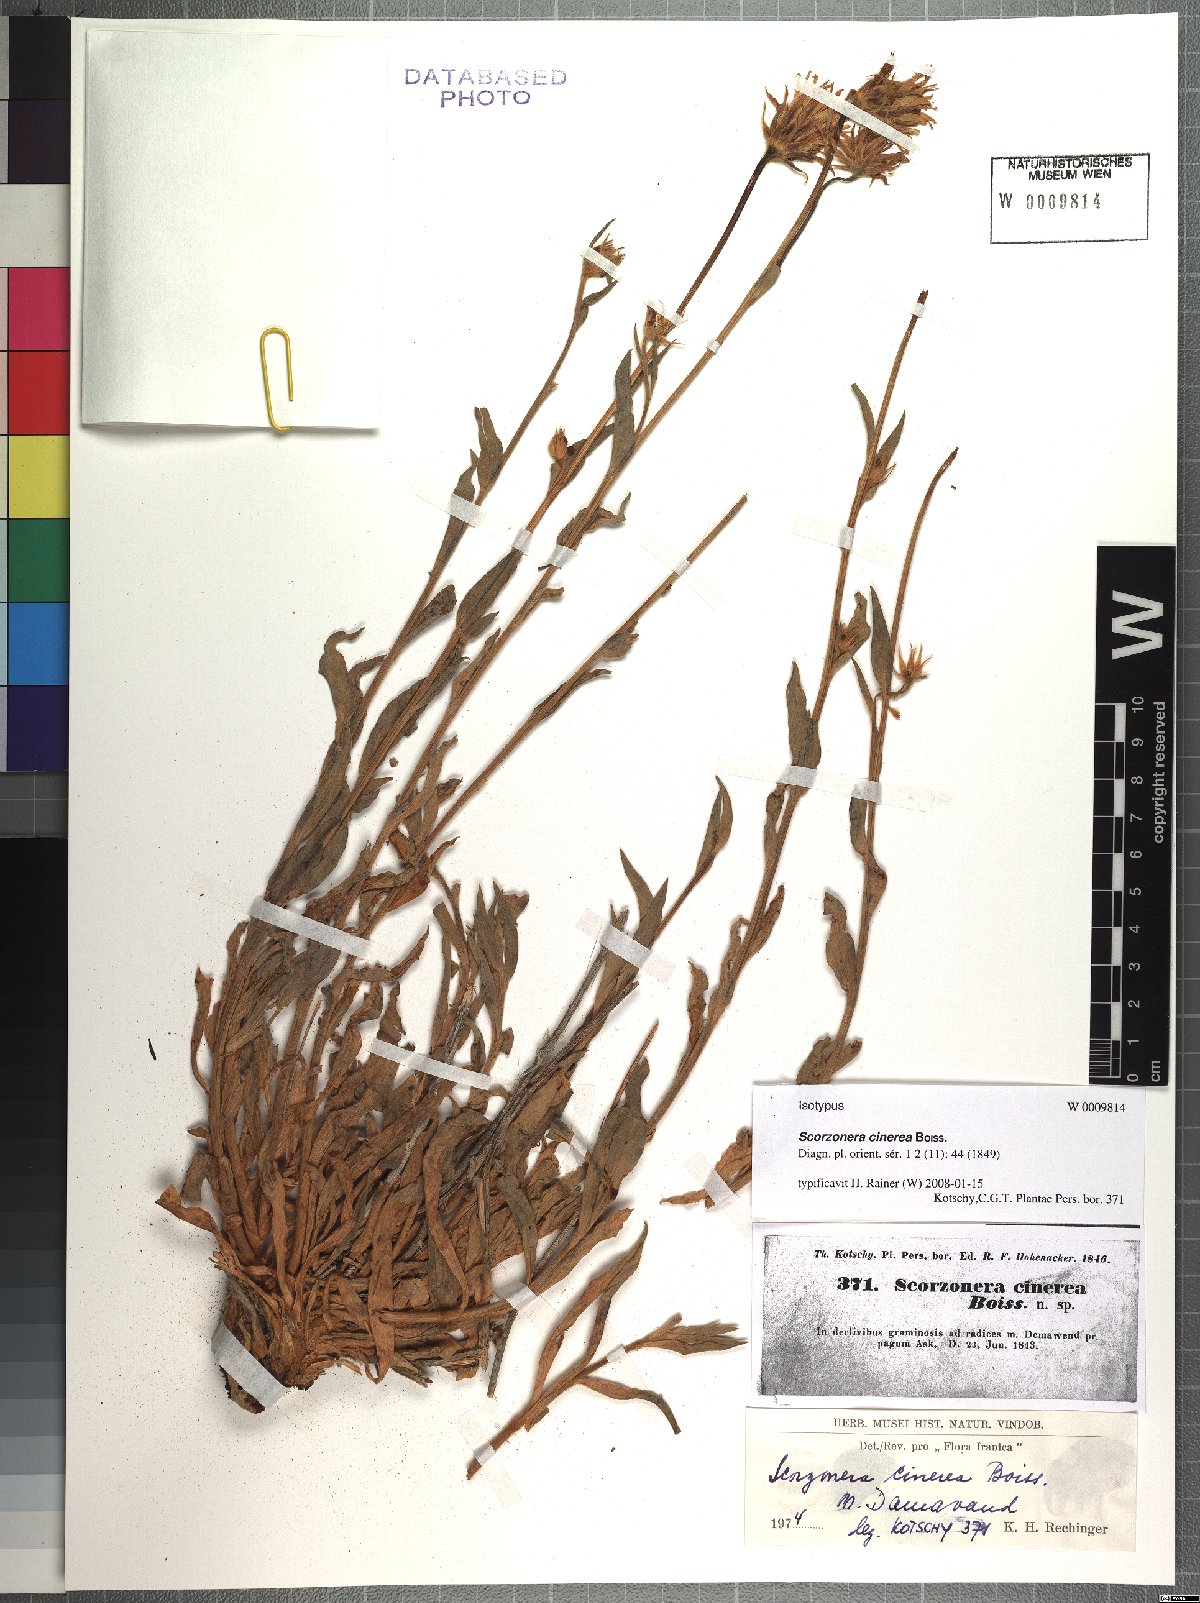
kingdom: Plantae
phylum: Tracheophyta
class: Magnoliopsida
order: Asterales
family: Asteraceae
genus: Cigdemia
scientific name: Cigdemia cinerea
